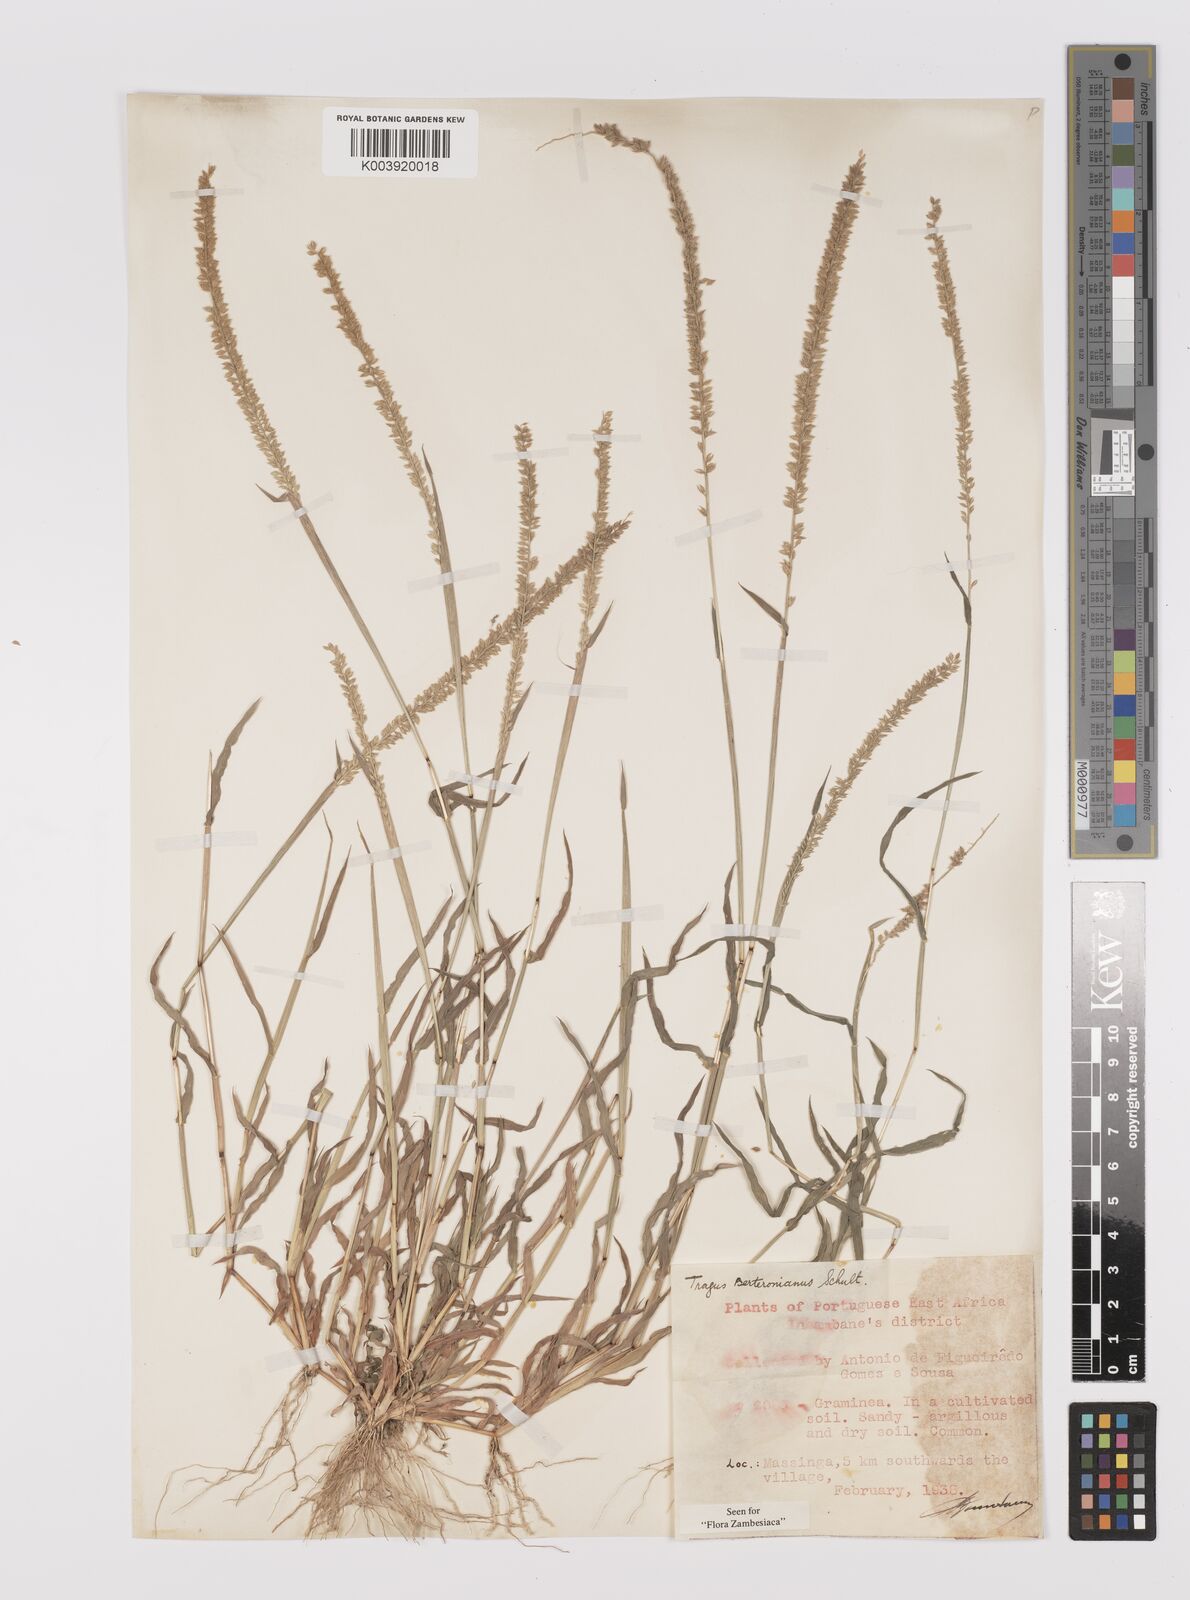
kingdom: Plantae
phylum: Tracheophyta
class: Liliopsida
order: Poales
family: Poaceae
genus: Tragus
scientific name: Tragus berteronianus
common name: African bur-grass
